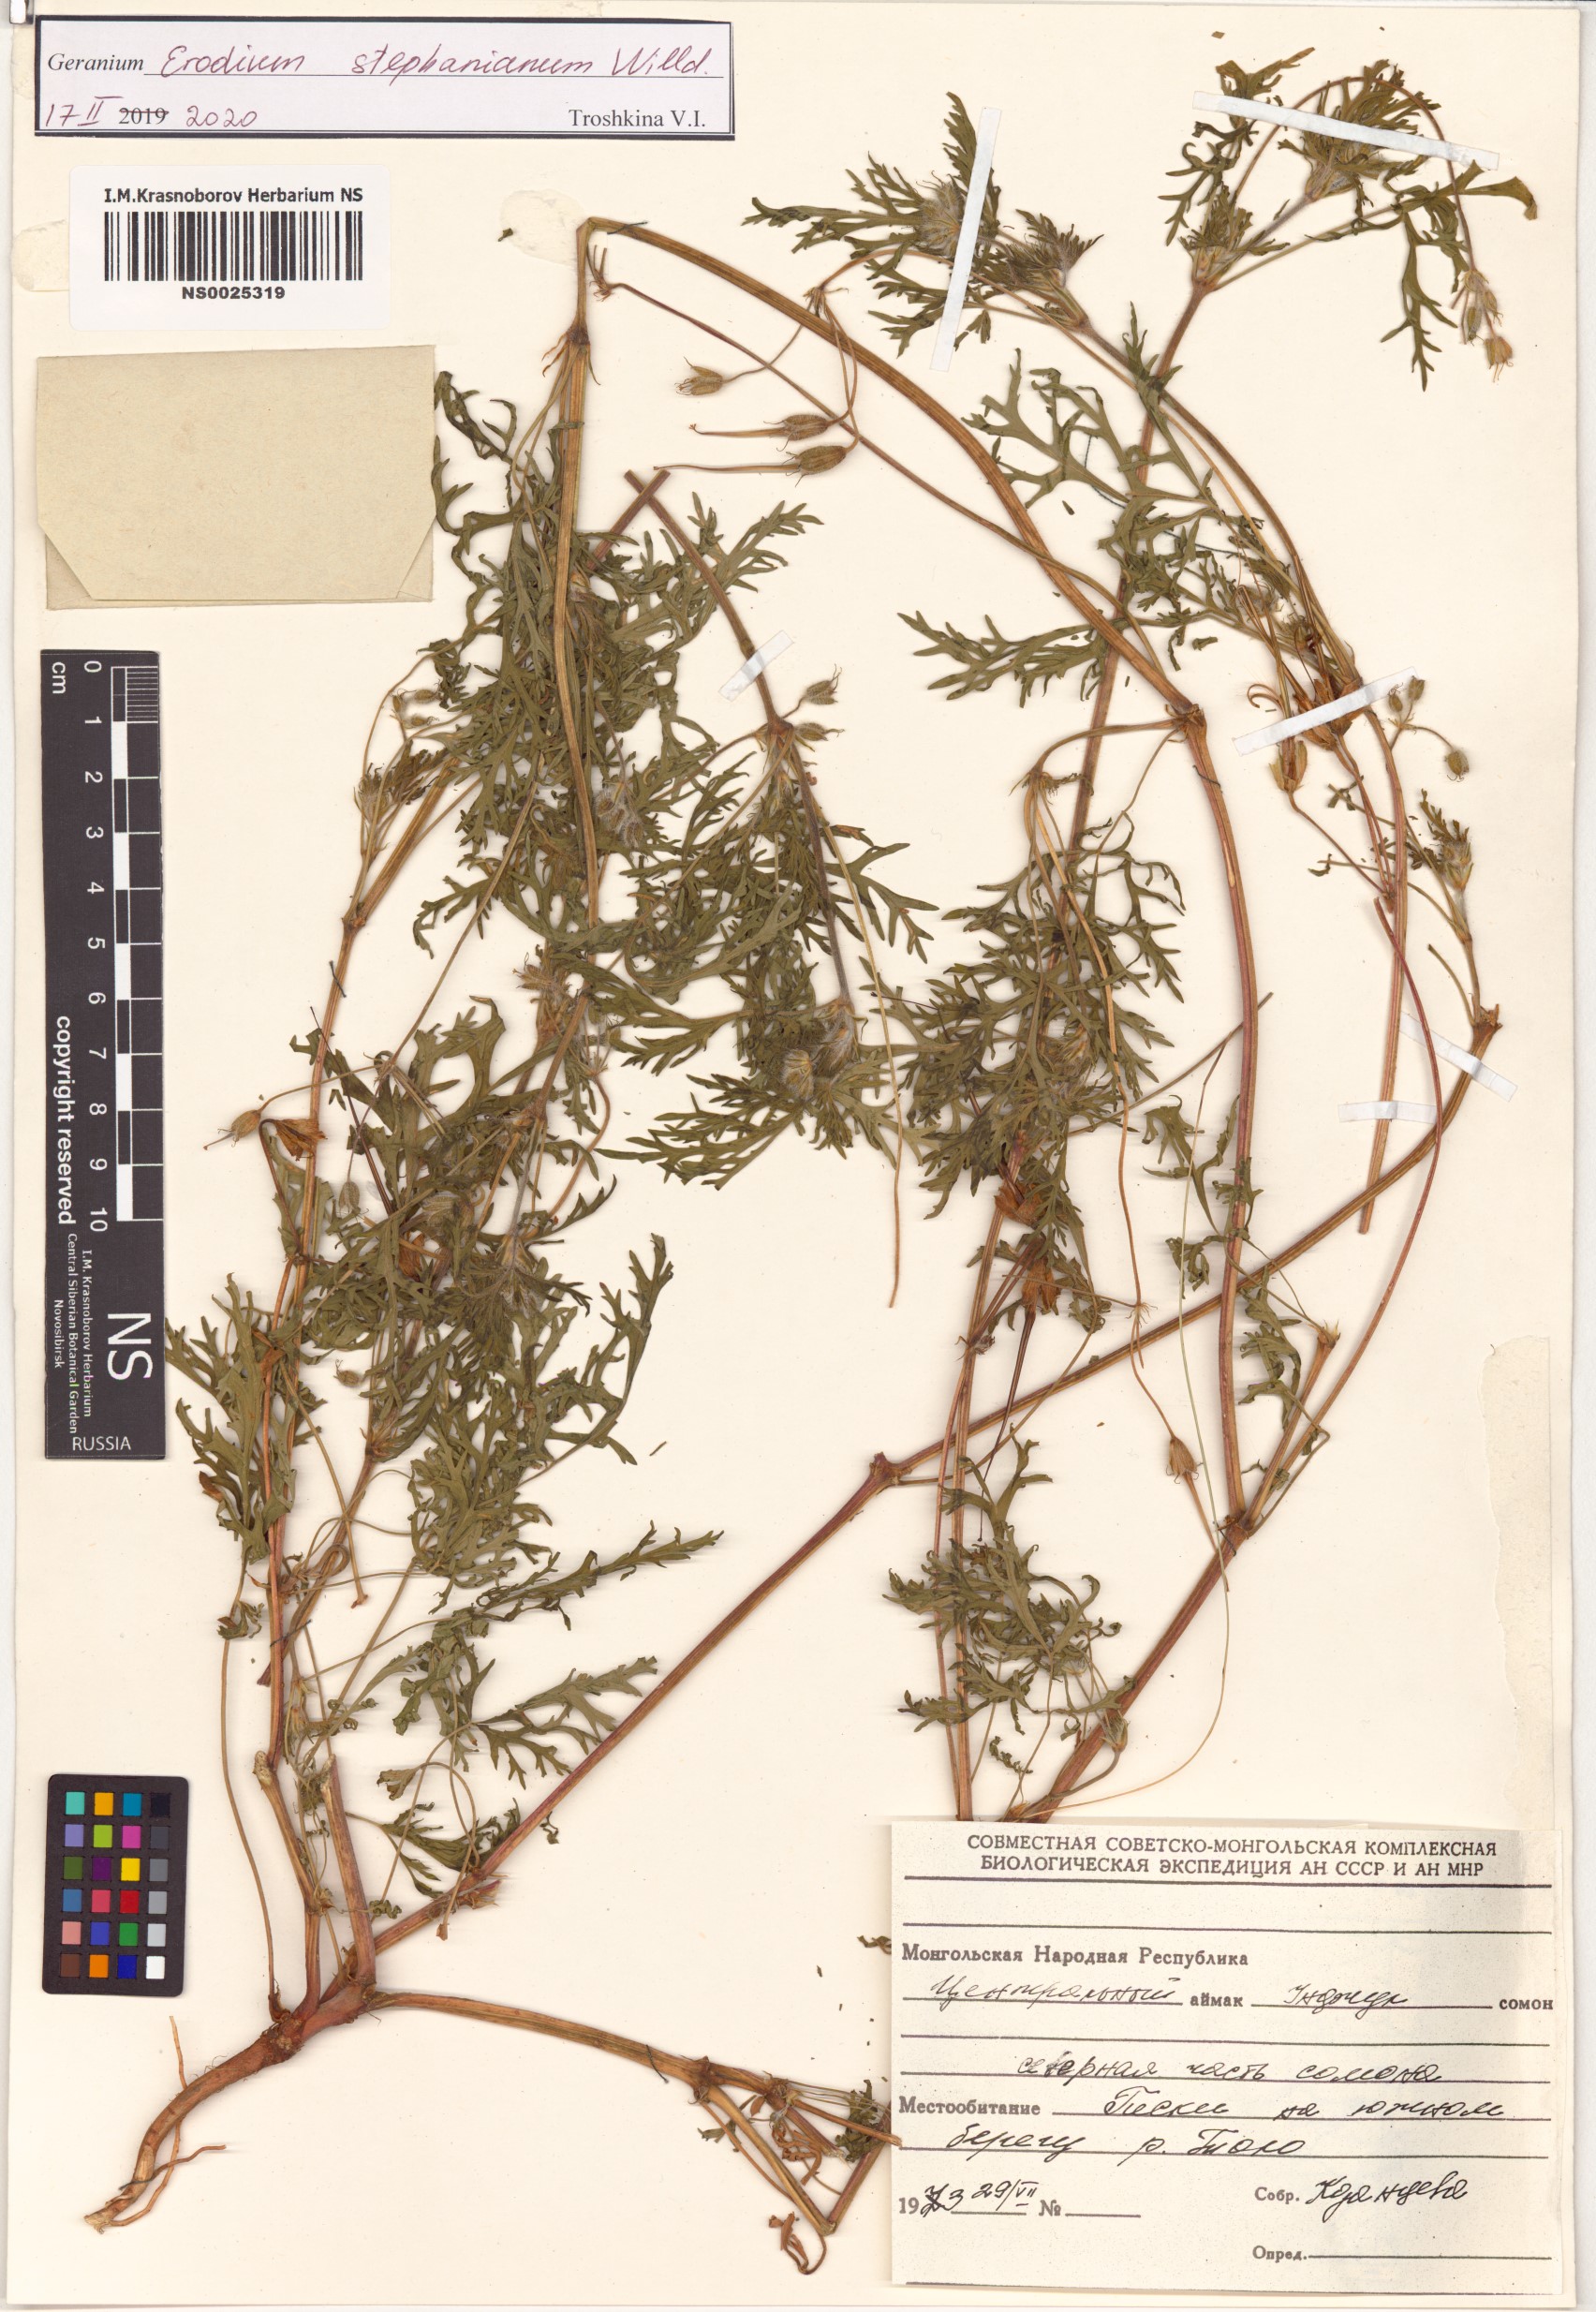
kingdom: Plantae
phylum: Tracheophyta
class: Magnoliopsida
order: Geraniales
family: Geraniaceae
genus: Erodium
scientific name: Erodium stephanianum
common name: Stephen's stork's bill
